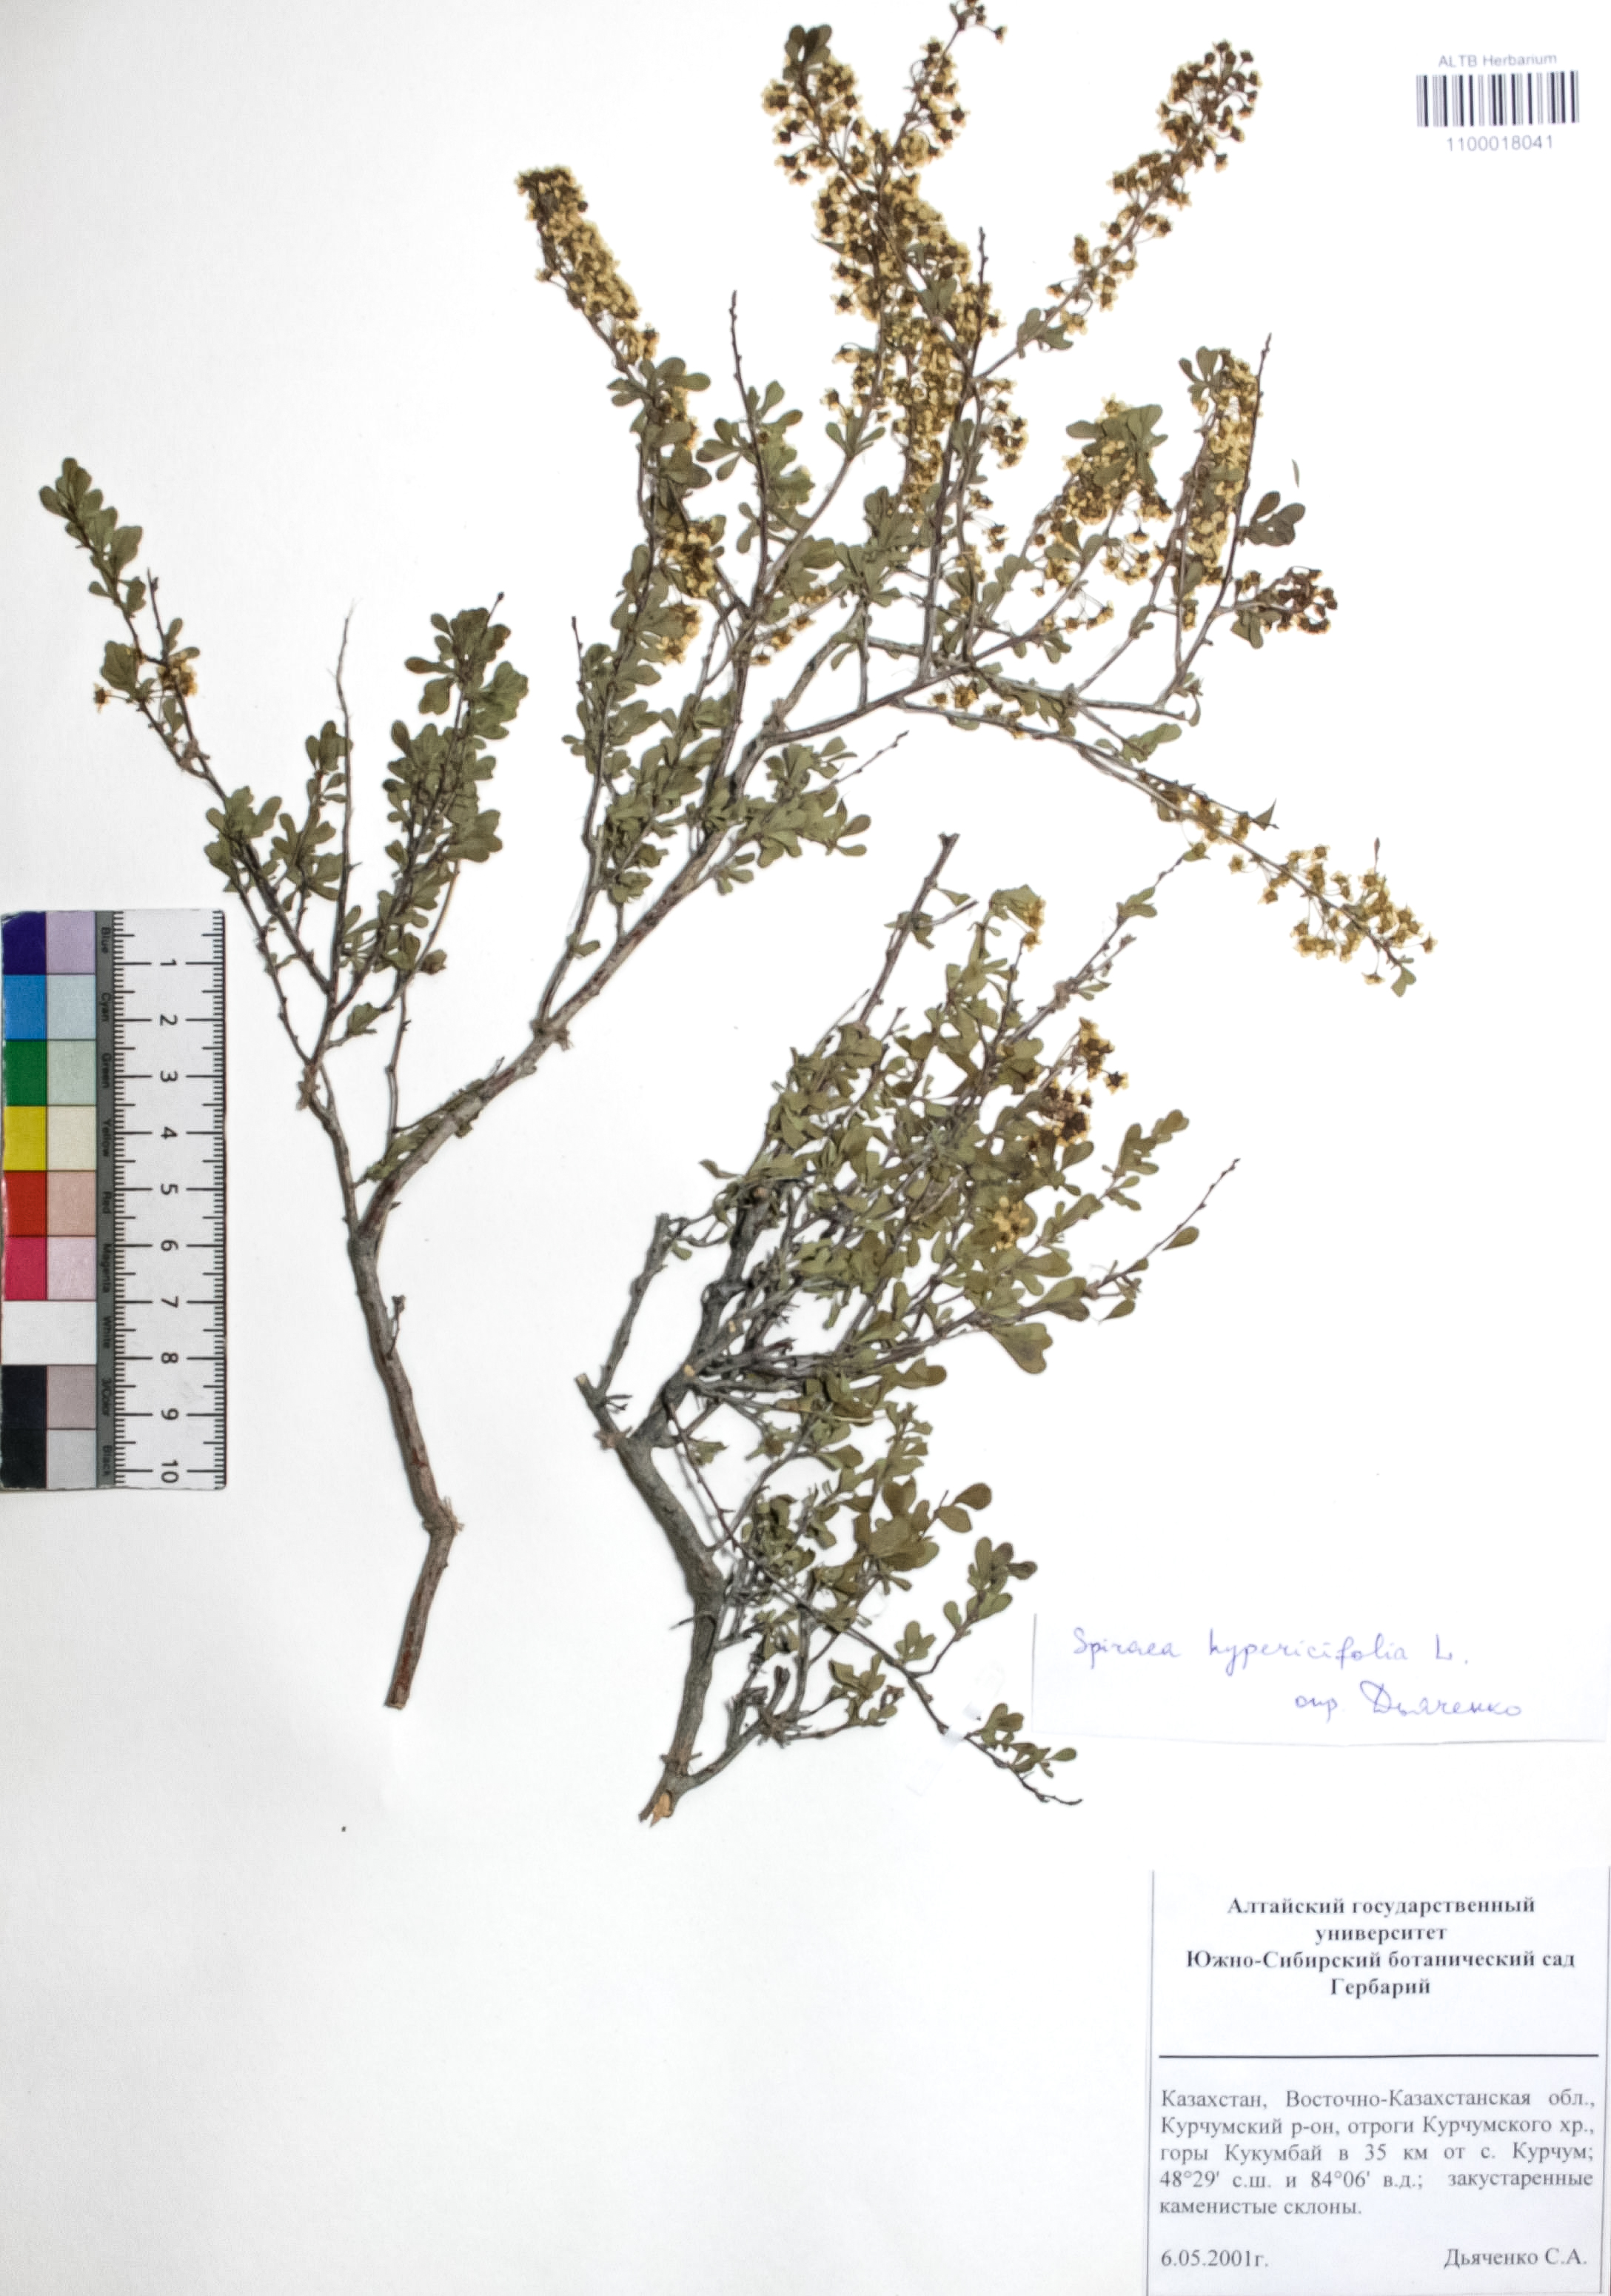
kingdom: Plantae
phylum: Tracheophyta
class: Magnoliopsida
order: Rosales
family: Rosaceae
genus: Spiraea
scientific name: Spiraea hypericifolia
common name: Iberian spirea
